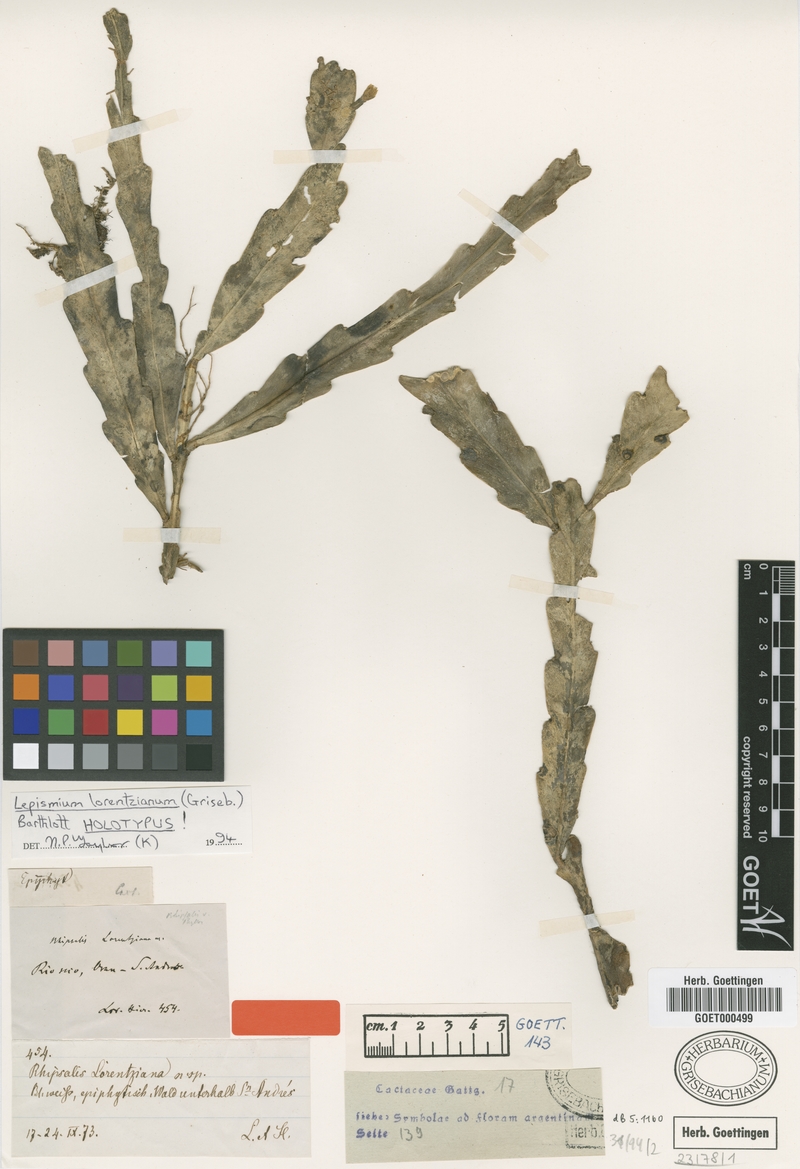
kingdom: Plantae
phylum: Tracheophyta
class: Magnoliopsida
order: Caryophyllales
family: Cactaceae
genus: Lepismium
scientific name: Lepismium lorentzianum
